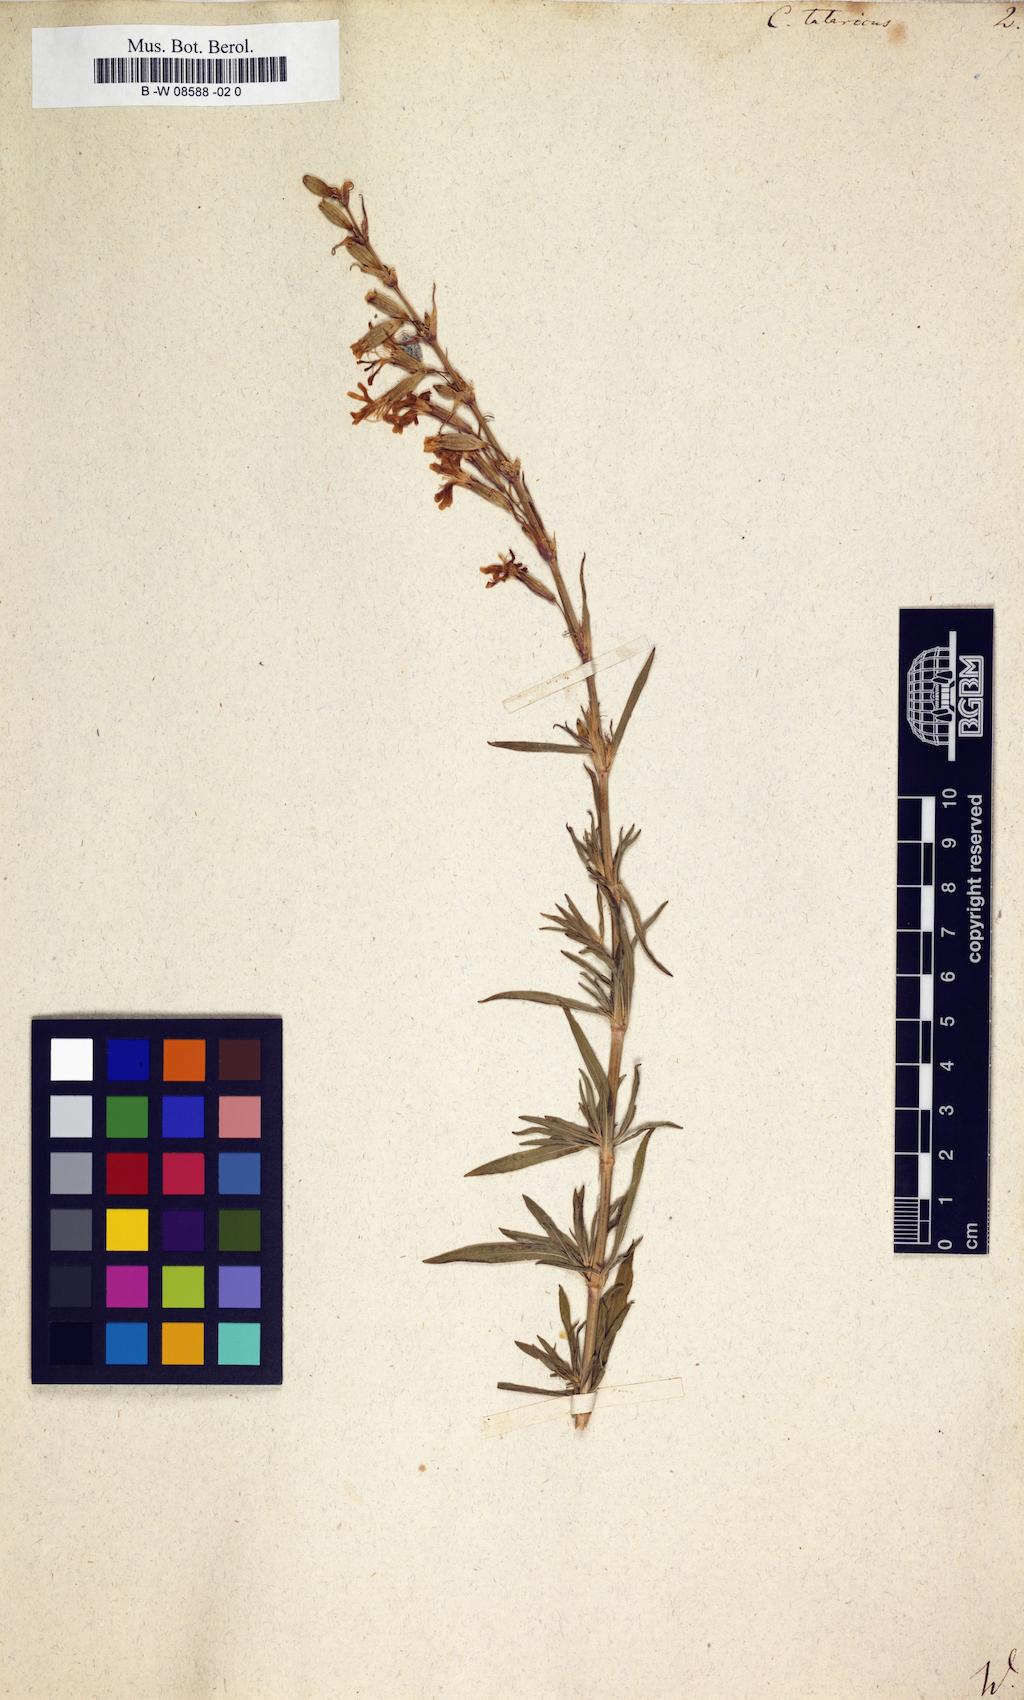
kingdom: Plantae
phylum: Tracheophyta
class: Magnoliopsida
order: Caryophyllales
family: Caryophyllaceae
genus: Silene
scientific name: Silene tatarica
